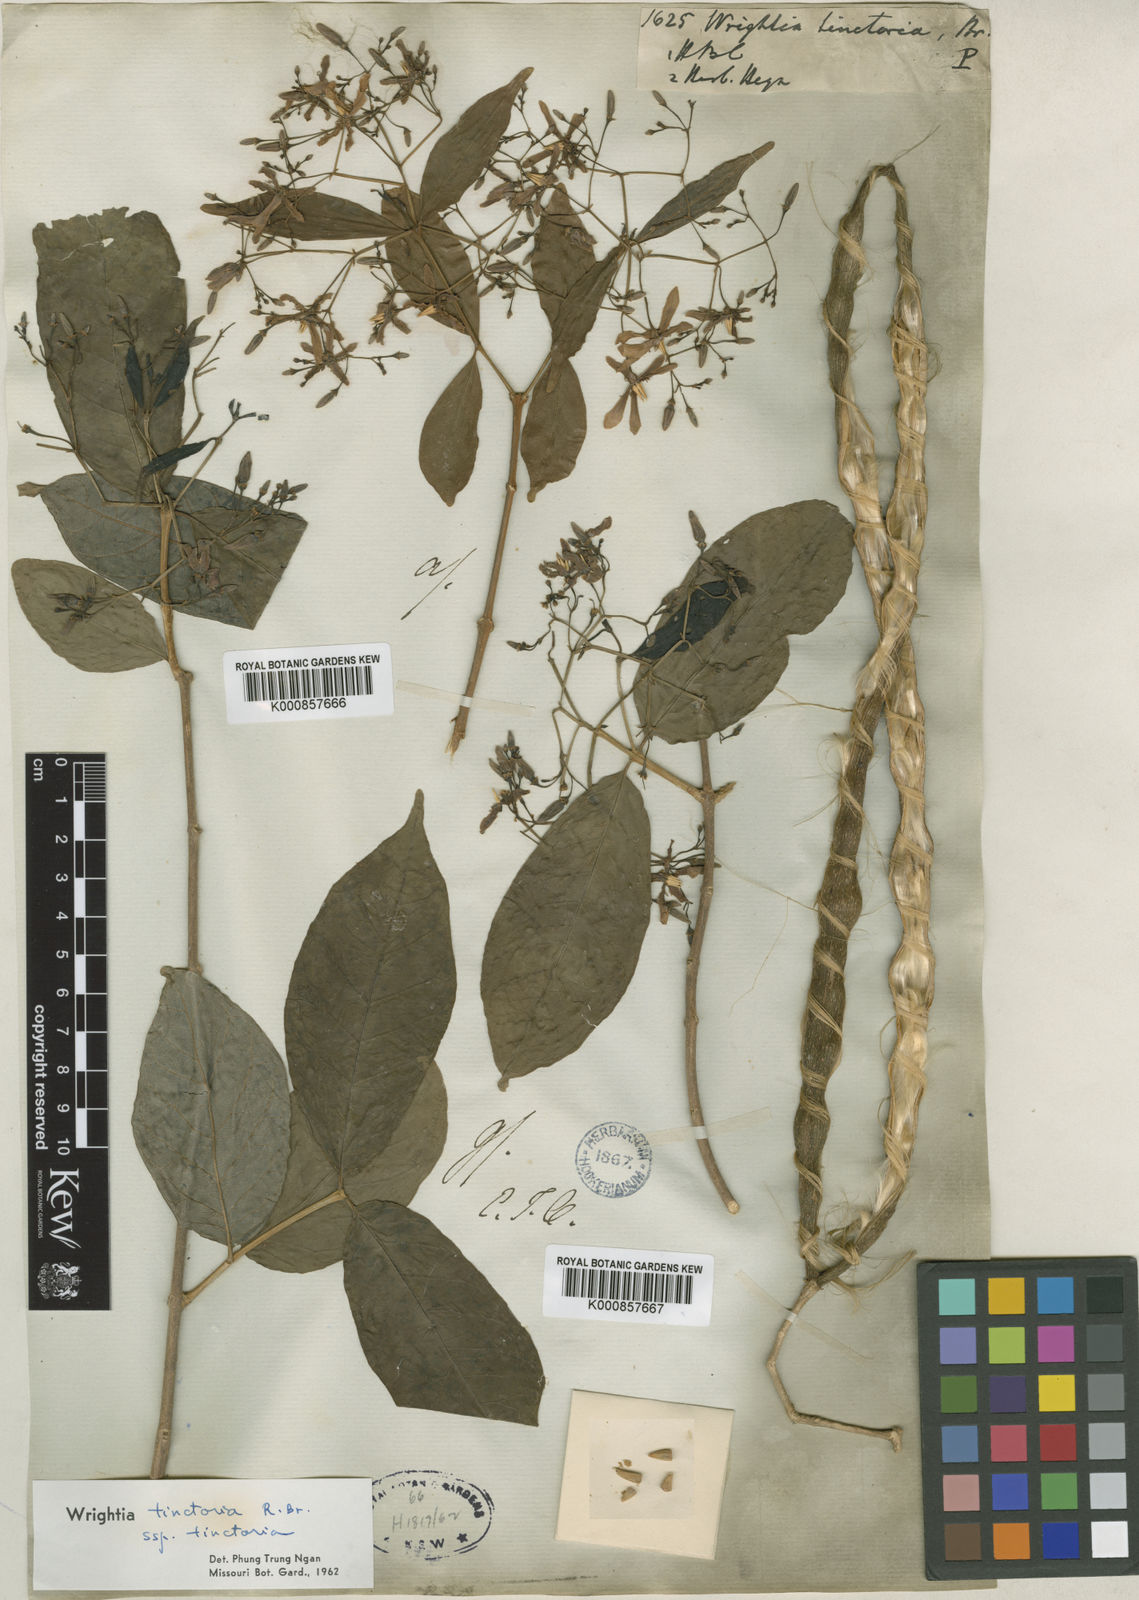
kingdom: Plantae
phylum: Tracheophyta
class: Magnoliopsida
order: Gentianales
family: Apocynaceae
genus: Wrightia
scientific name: Wrightia tinctoria
